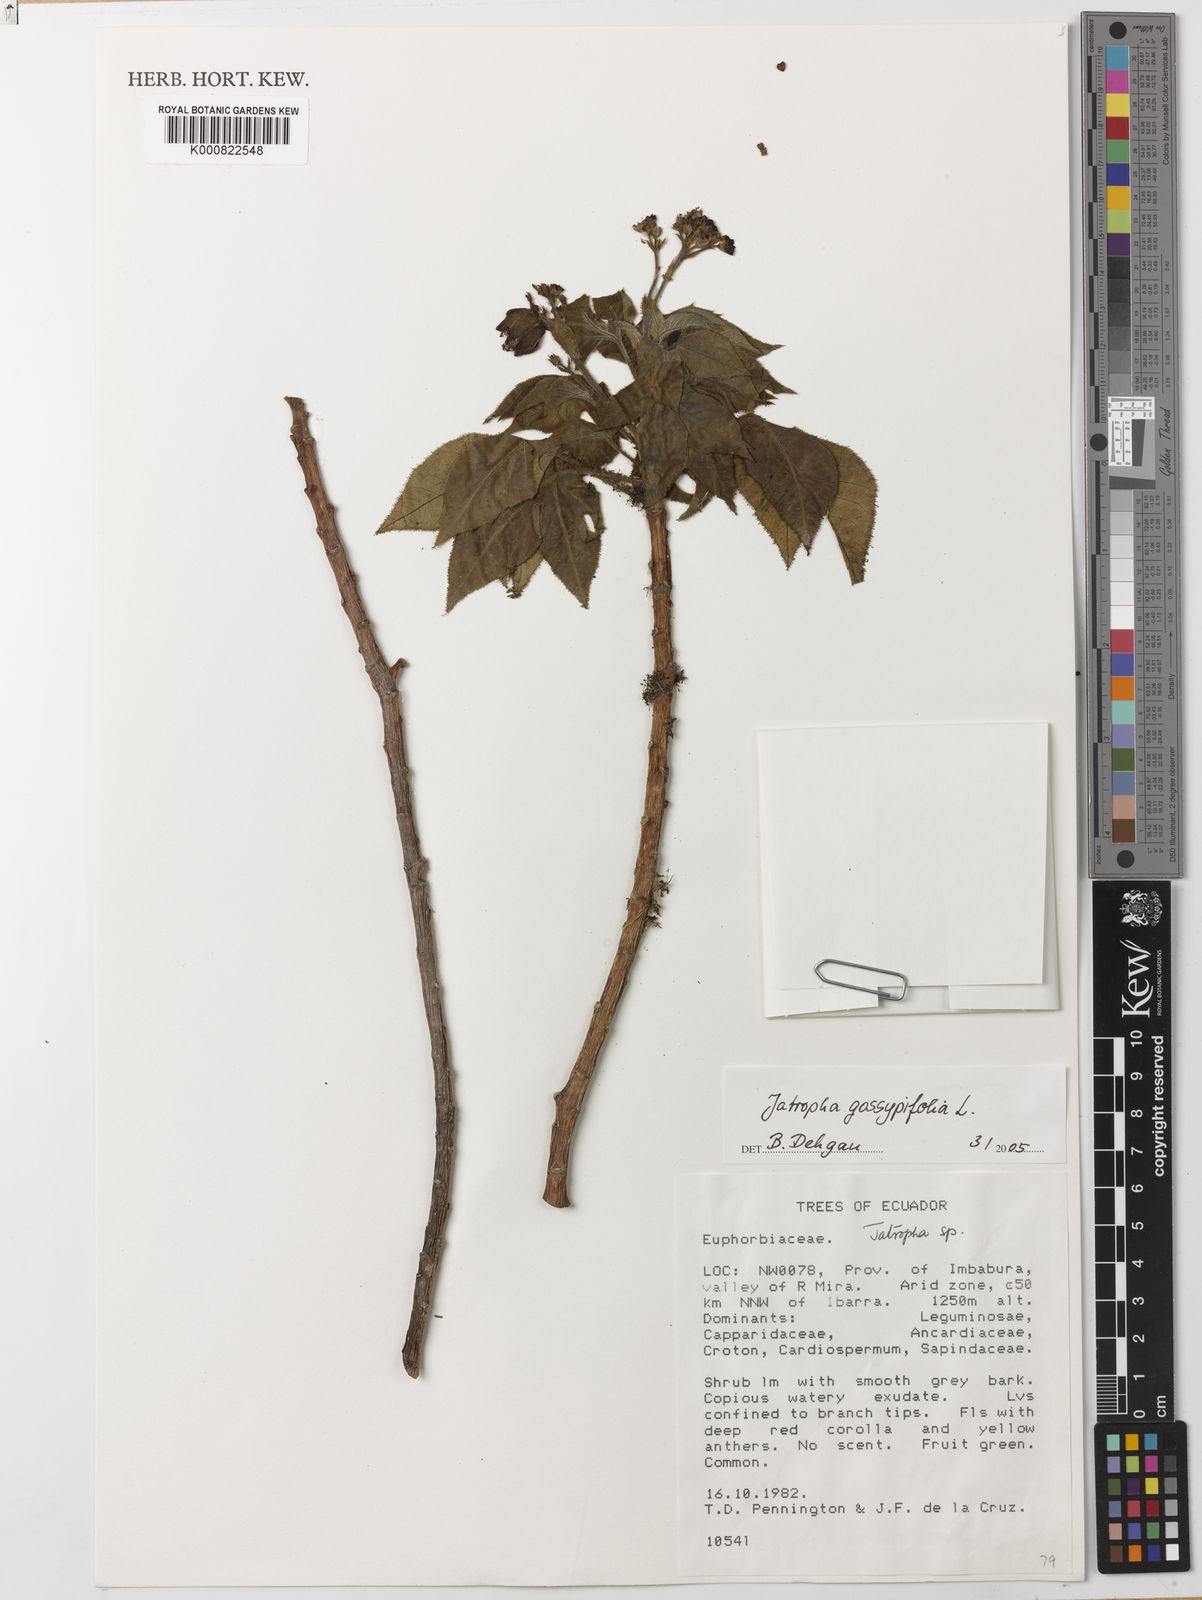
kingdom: Plantae
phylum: Tracheophyta
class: Magnoliopsida
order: Malpighiales
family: Euphorbiaceae
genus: Jatropha
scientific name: Jatropha gossypiifolia
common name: Bellyache bush
